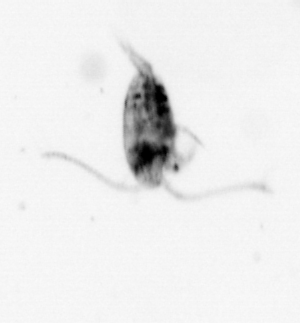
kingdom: Animalia
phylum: Arthropoda
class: Copepoda
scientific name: Copepoda
